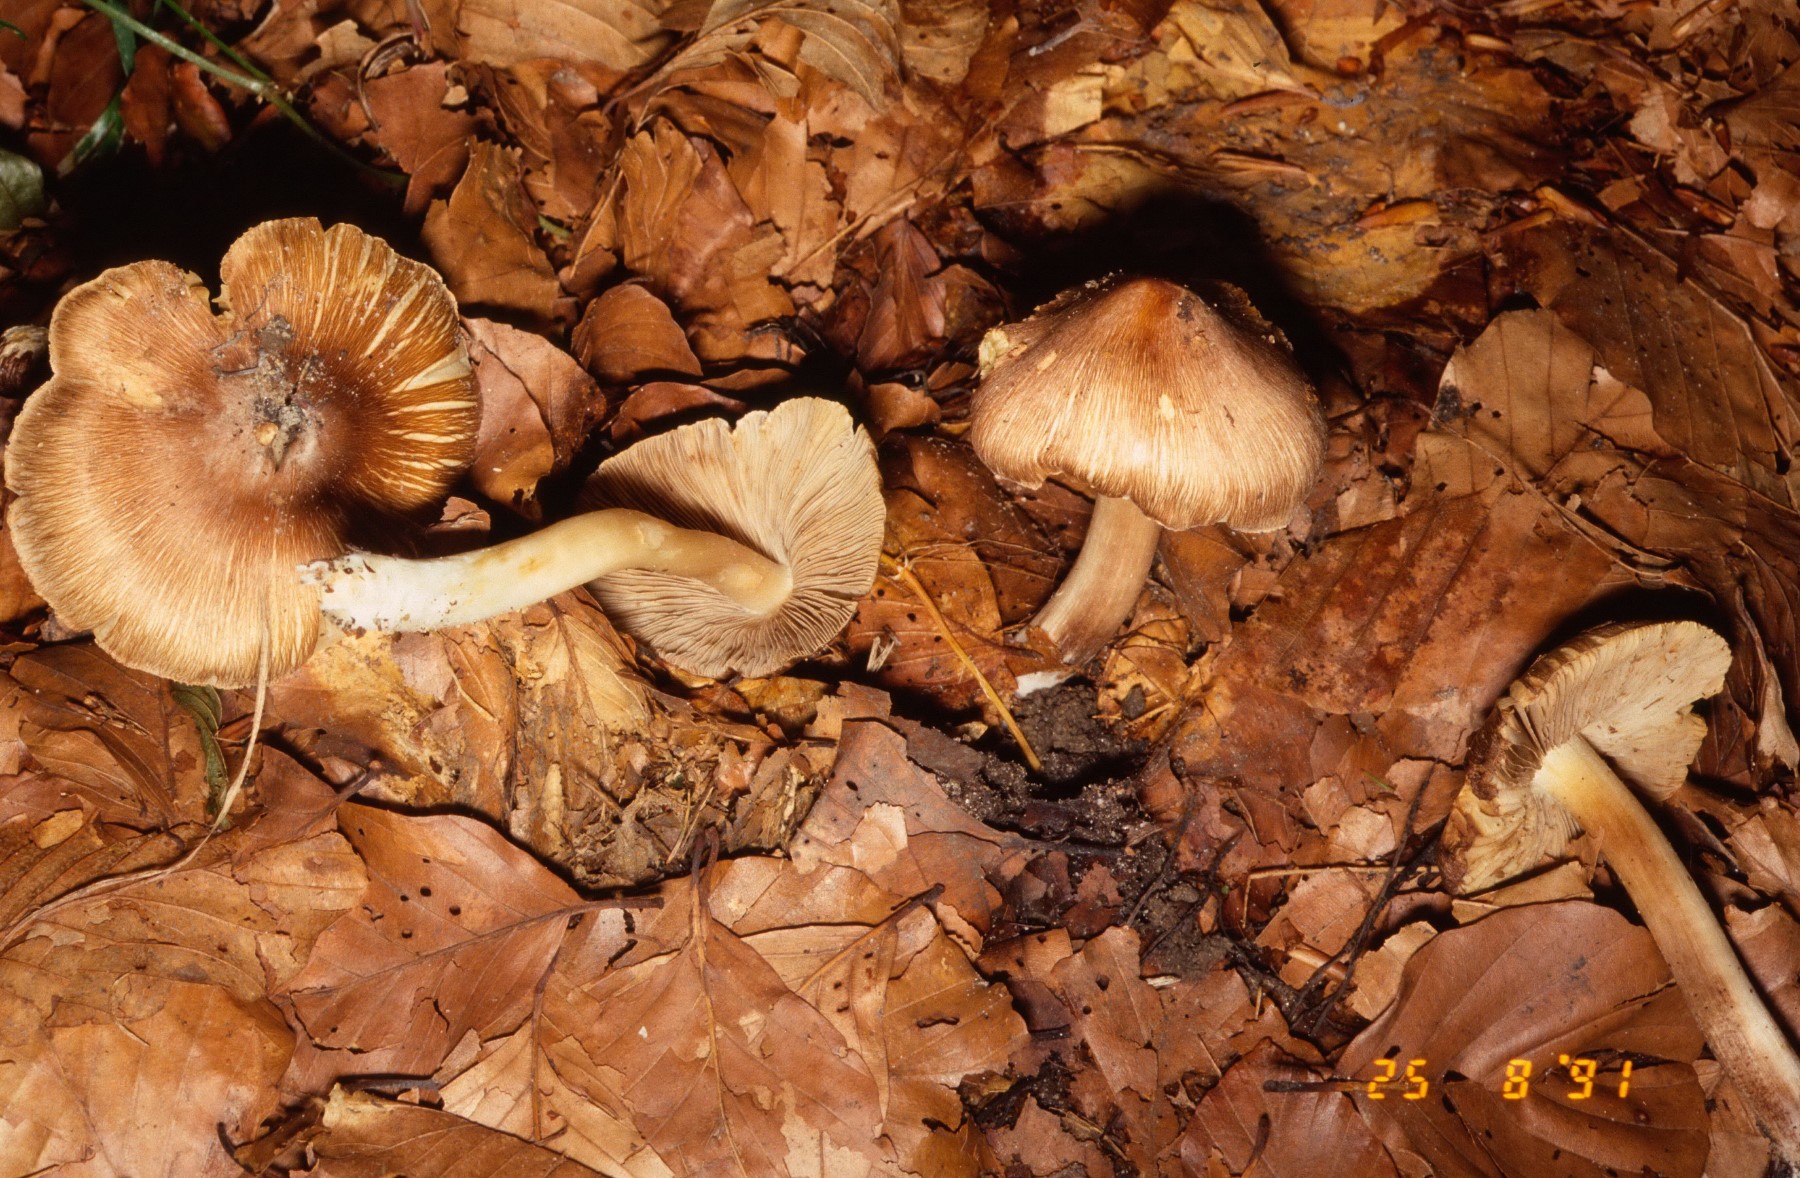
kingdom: Fungi
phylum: Basidiomycota
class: Agaricomycetes
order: Agaricales
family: Inocybaceae
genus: Inosperma
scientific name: Inosperma
